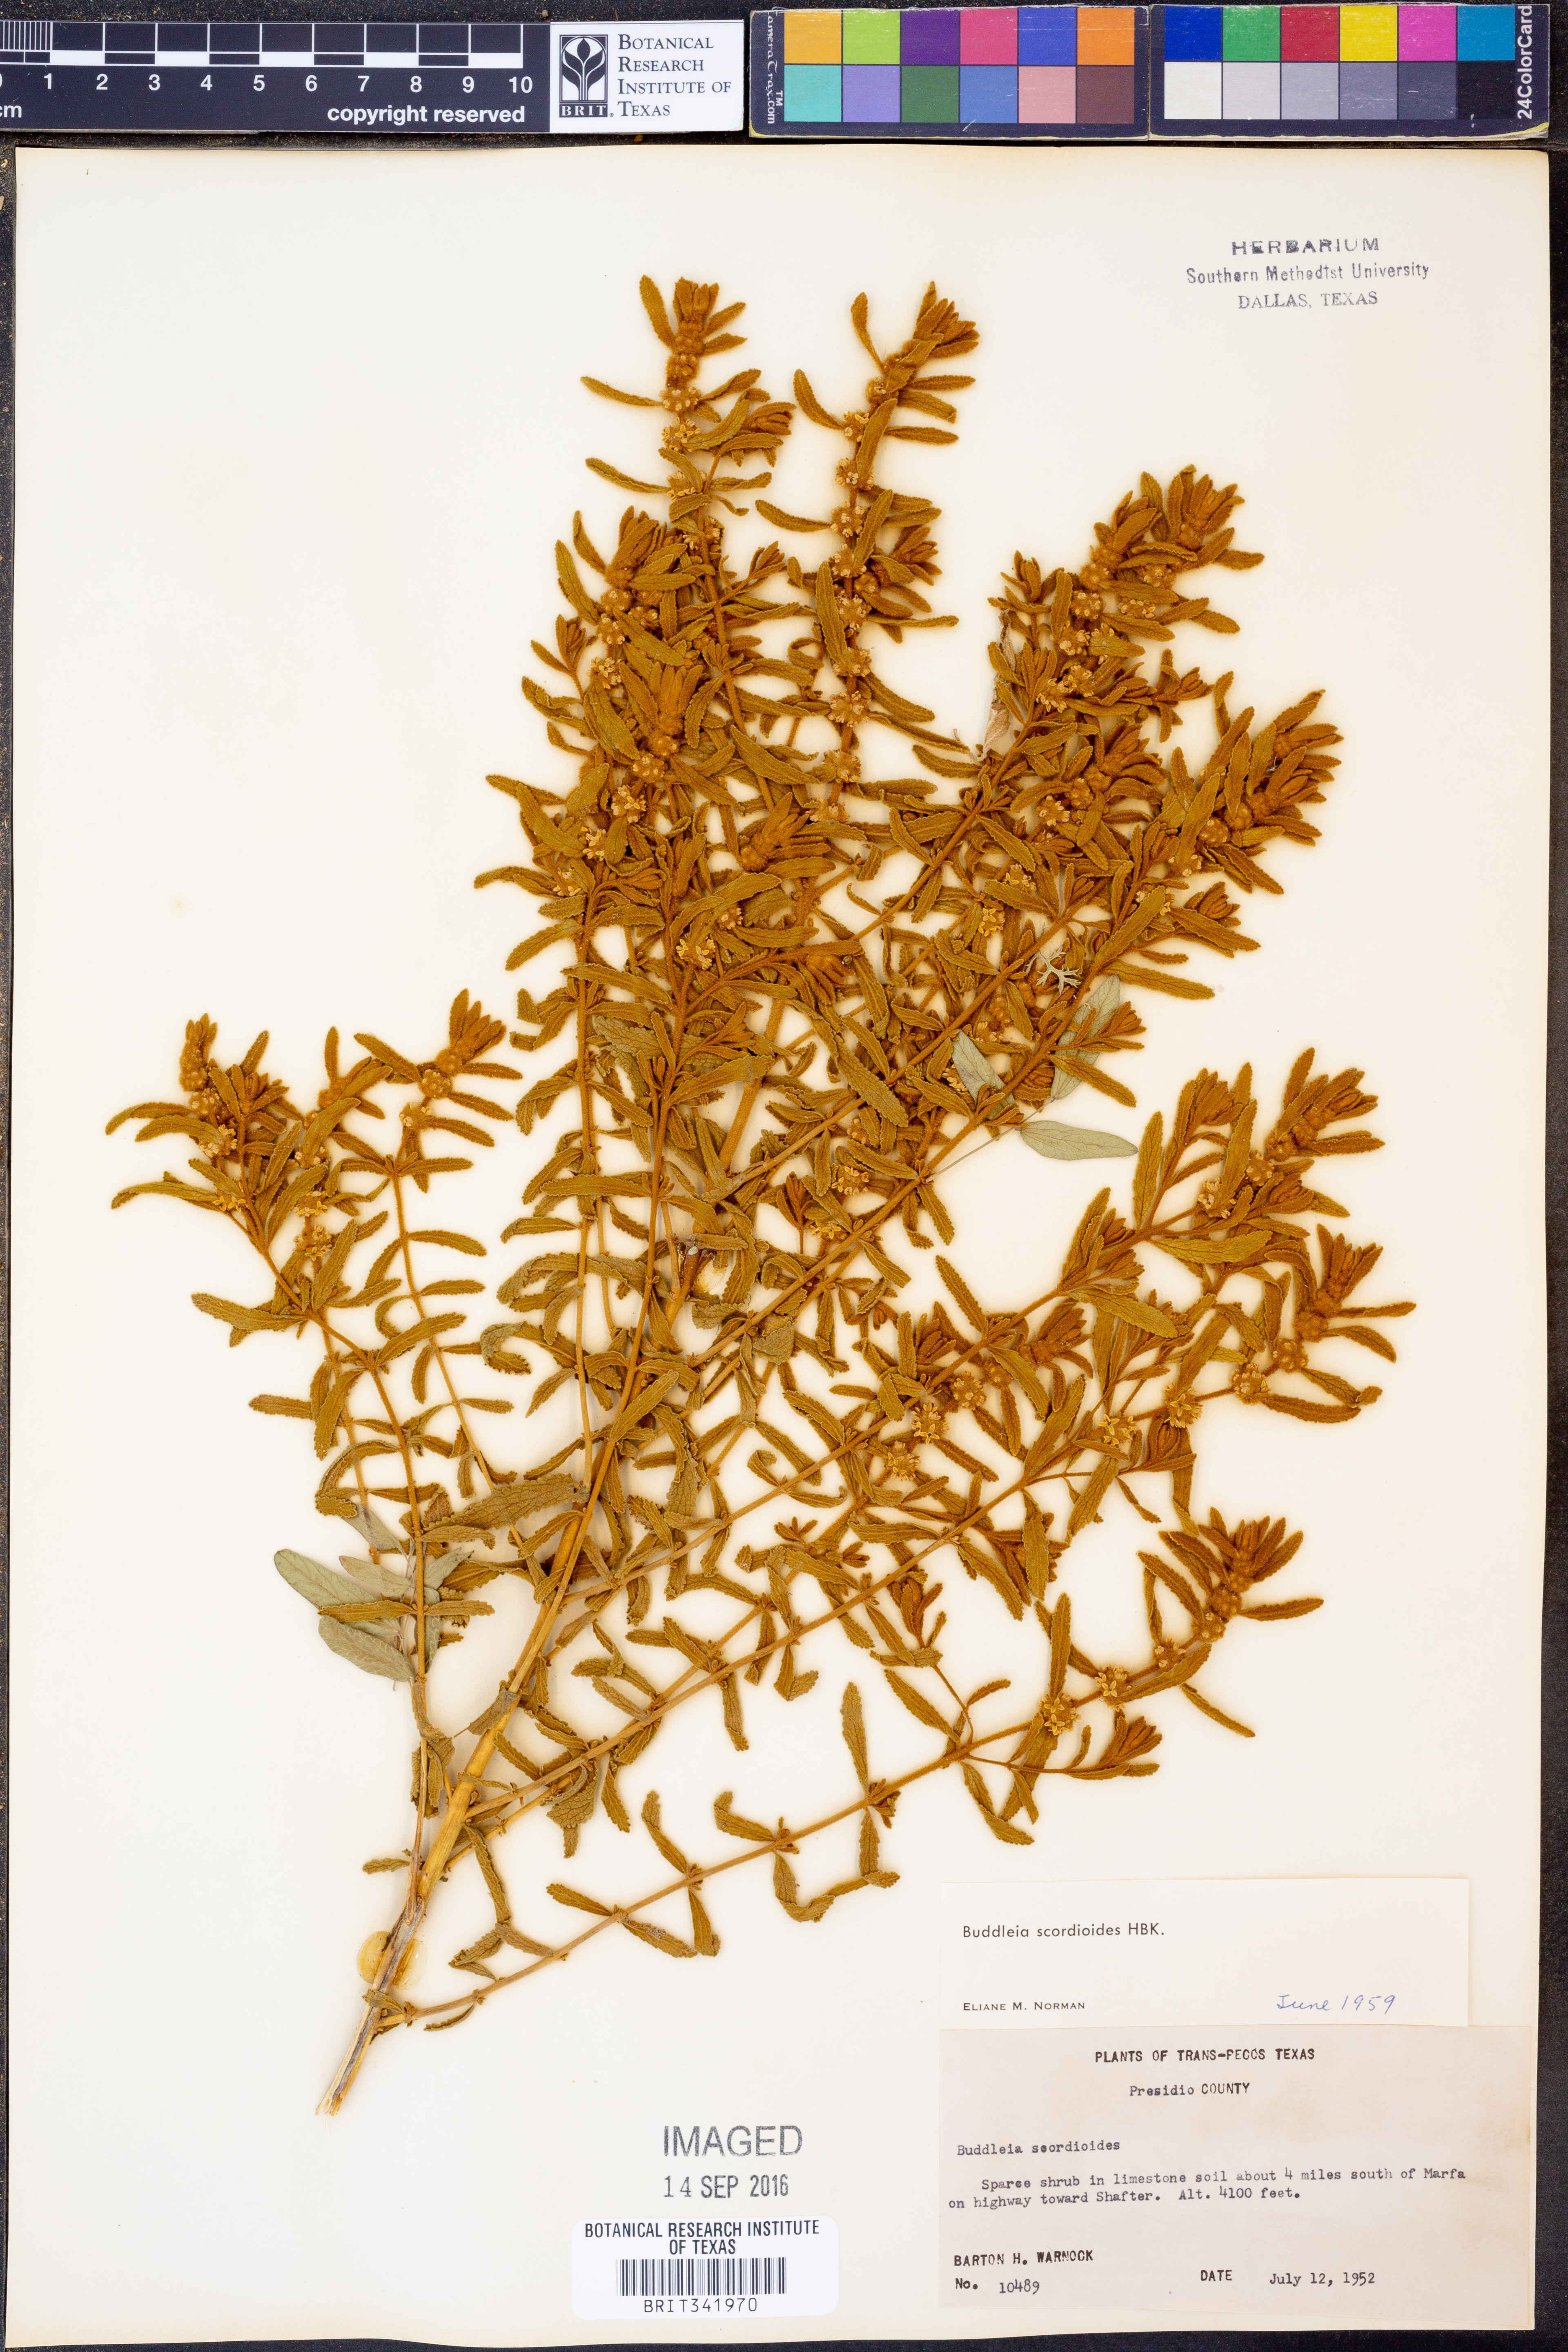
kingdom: Plantae
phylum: Tracheophyta
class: Magnoliopsida
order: Lamiales
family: Scrophulariaceae
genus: Buddleja
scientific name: Buddleja scordioides
